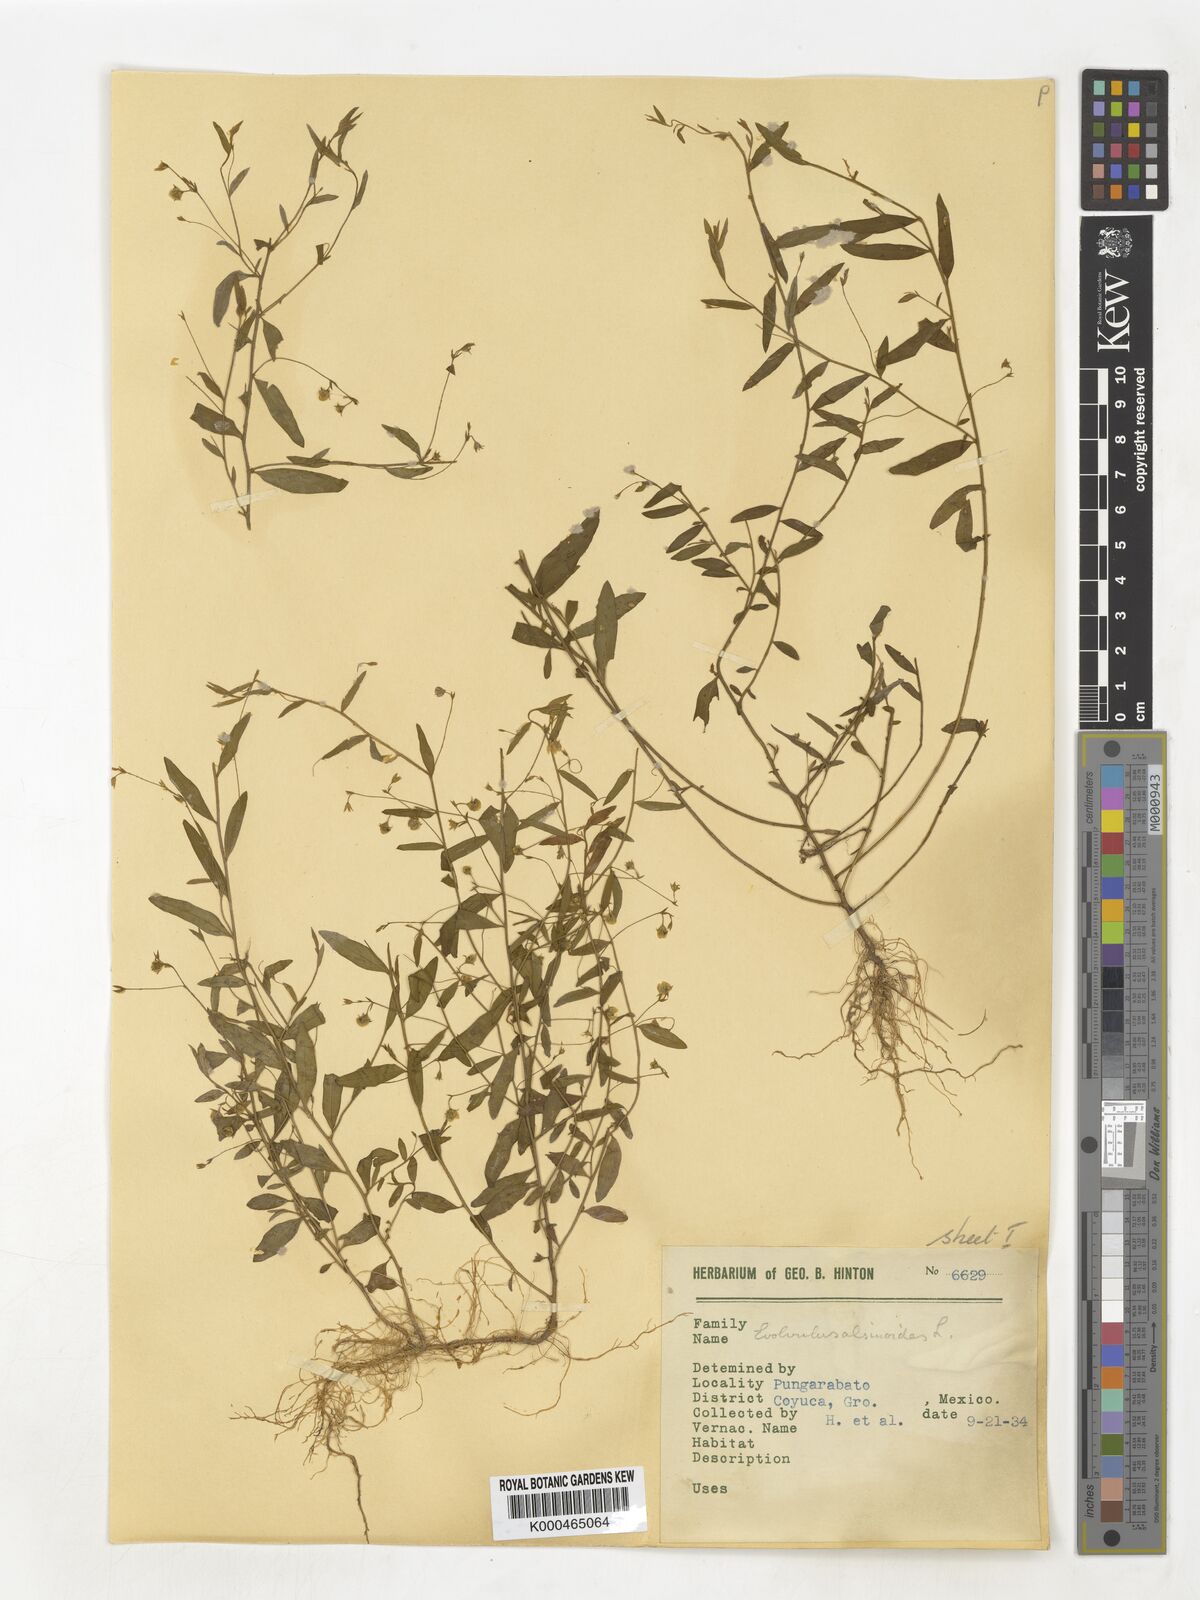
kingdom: Plantae
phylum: Tracheophyta
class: Magnoliopsida
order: Solanales
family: Convolvulaceae
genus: Evolvulus
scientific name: Evolvulus alsinoides
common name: Slender dwarf morning-glory
